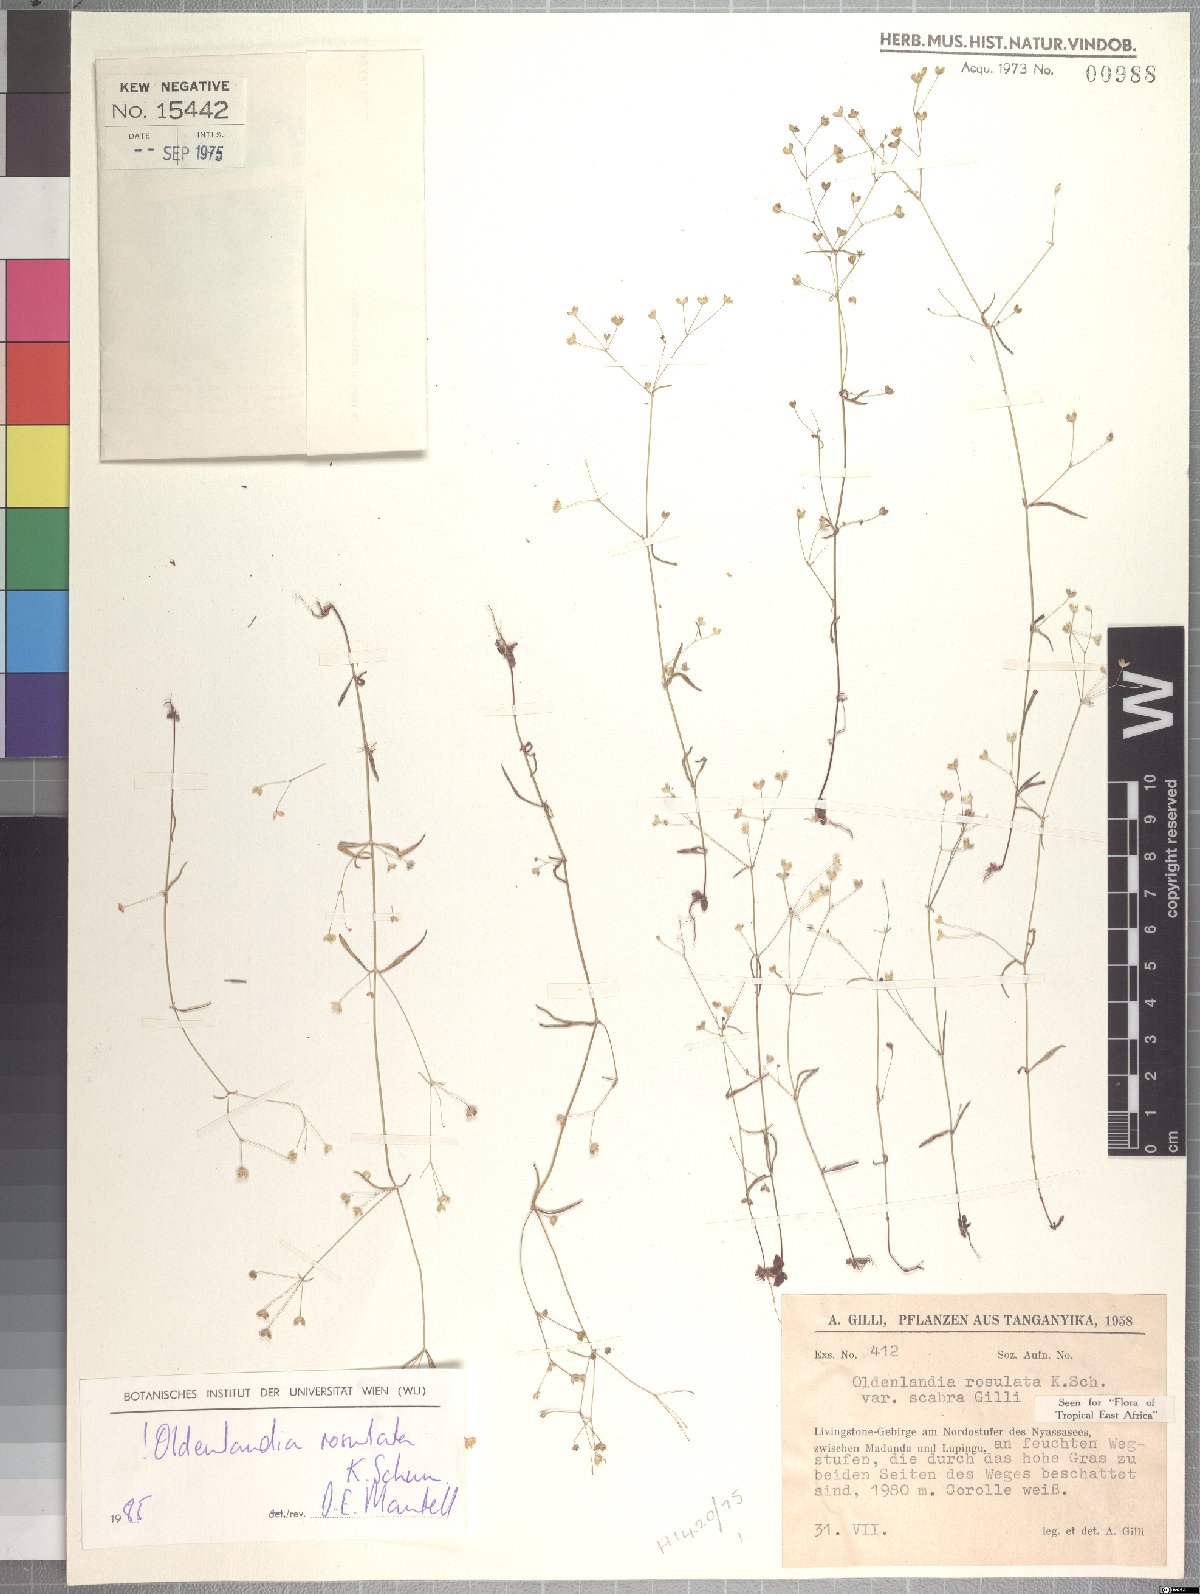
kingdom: Plantae
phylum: Tracheophyta
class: Magnoliopsida
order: Gentianales
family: Rubiaceae
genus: Oldenlandia
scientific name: Oldenlandia rosulata
